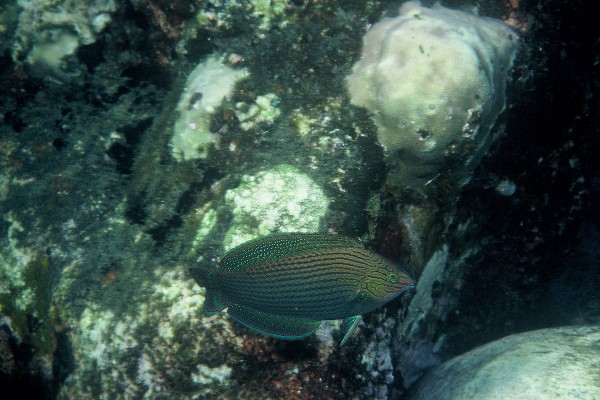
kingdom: Animalia
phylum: Chordata
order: Perciformes
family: Labridae
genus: Halichoeres
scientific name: Halichoeres marginatus
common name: Dusky wrasse
